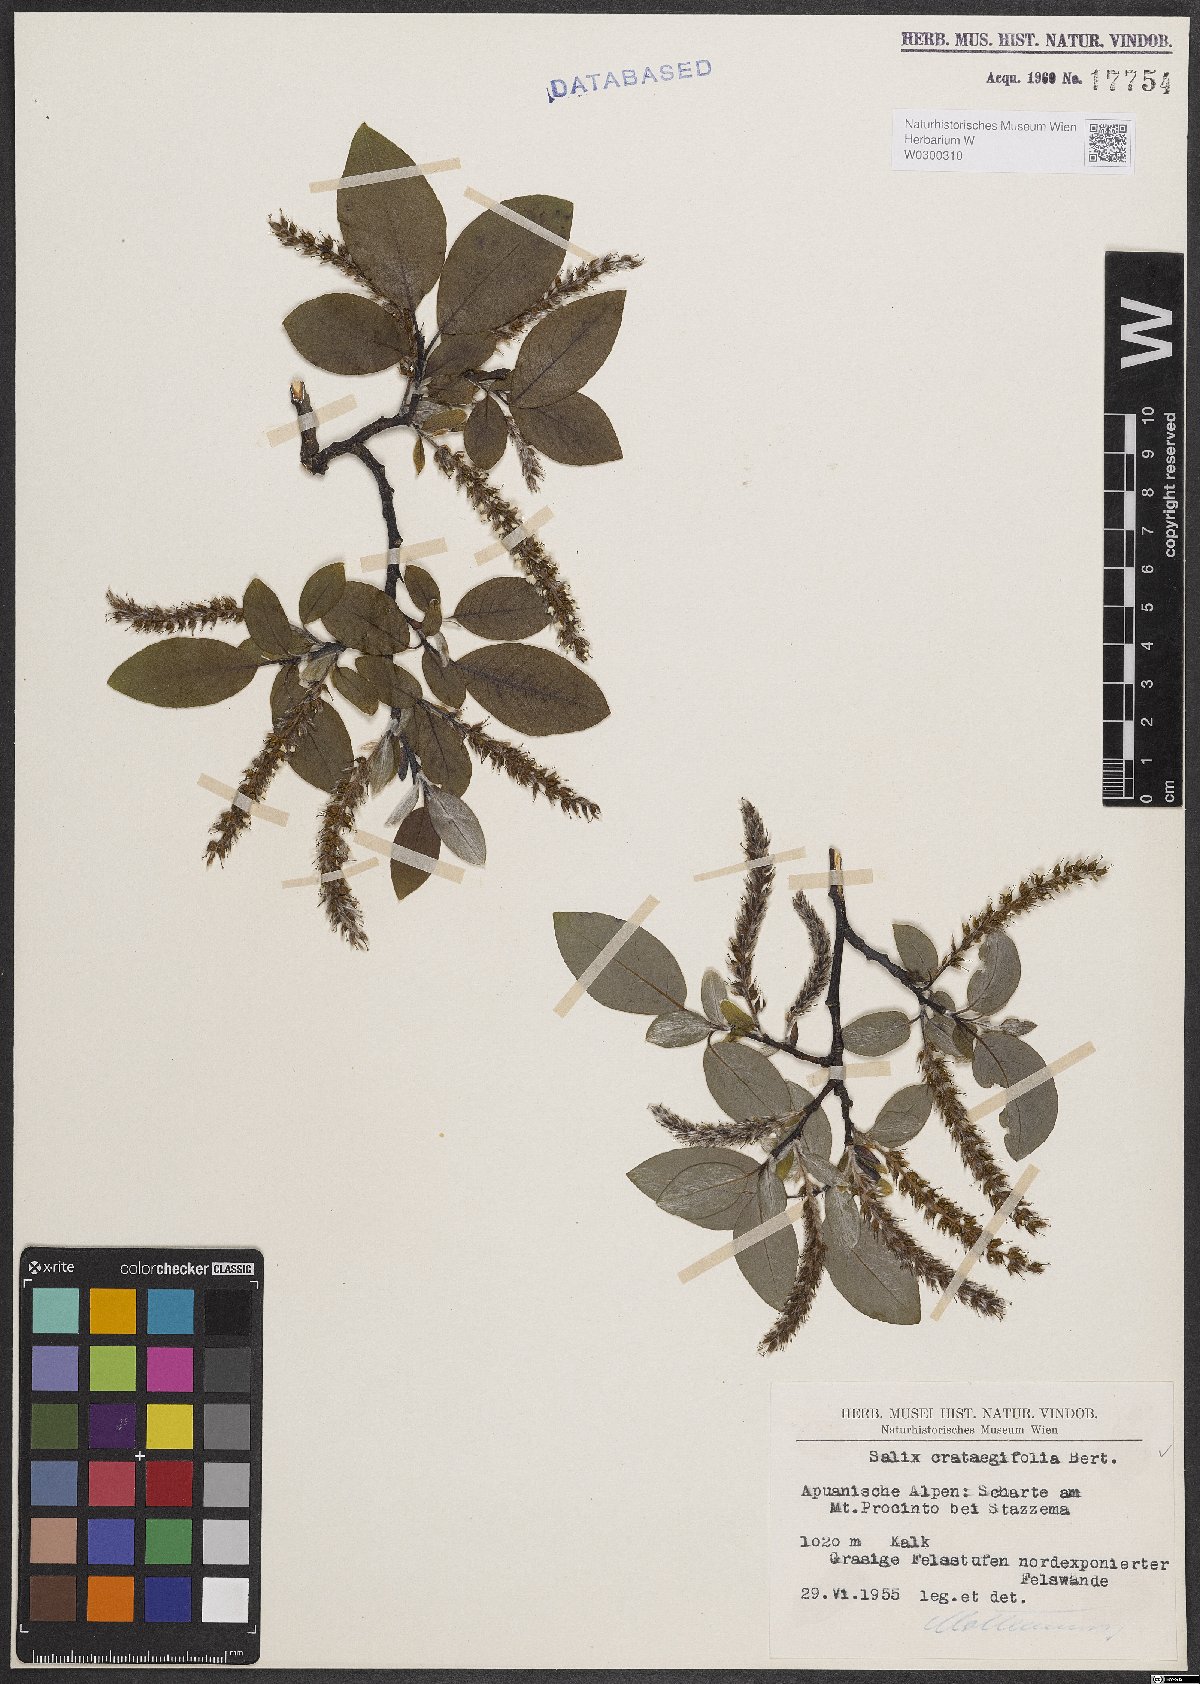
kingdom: Plantae
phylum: Tracheophyta
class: Magnoliopsida
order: Malpighiales
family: Salicaceae
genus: Salix
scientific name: Salix crataegifolia
